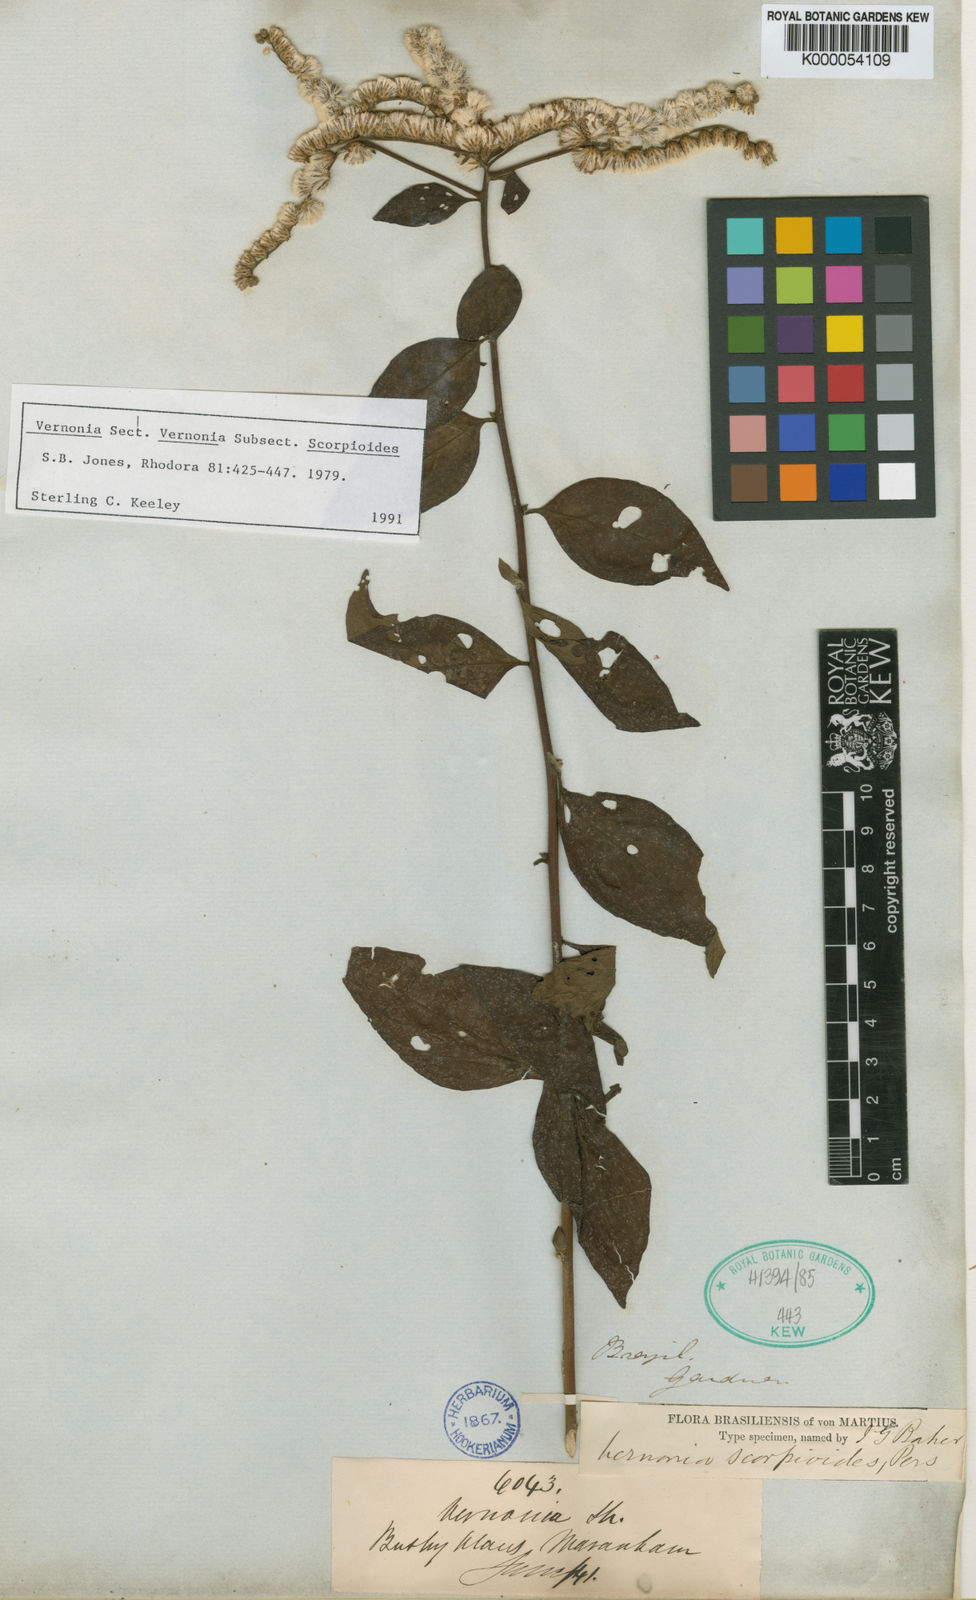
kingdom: Plantae
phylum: Tracheophyta
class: Magnoliopsida
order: Asterales
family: Asteraceae
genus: Cyrtocymura
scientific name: Cyrtocymura scorpioides
